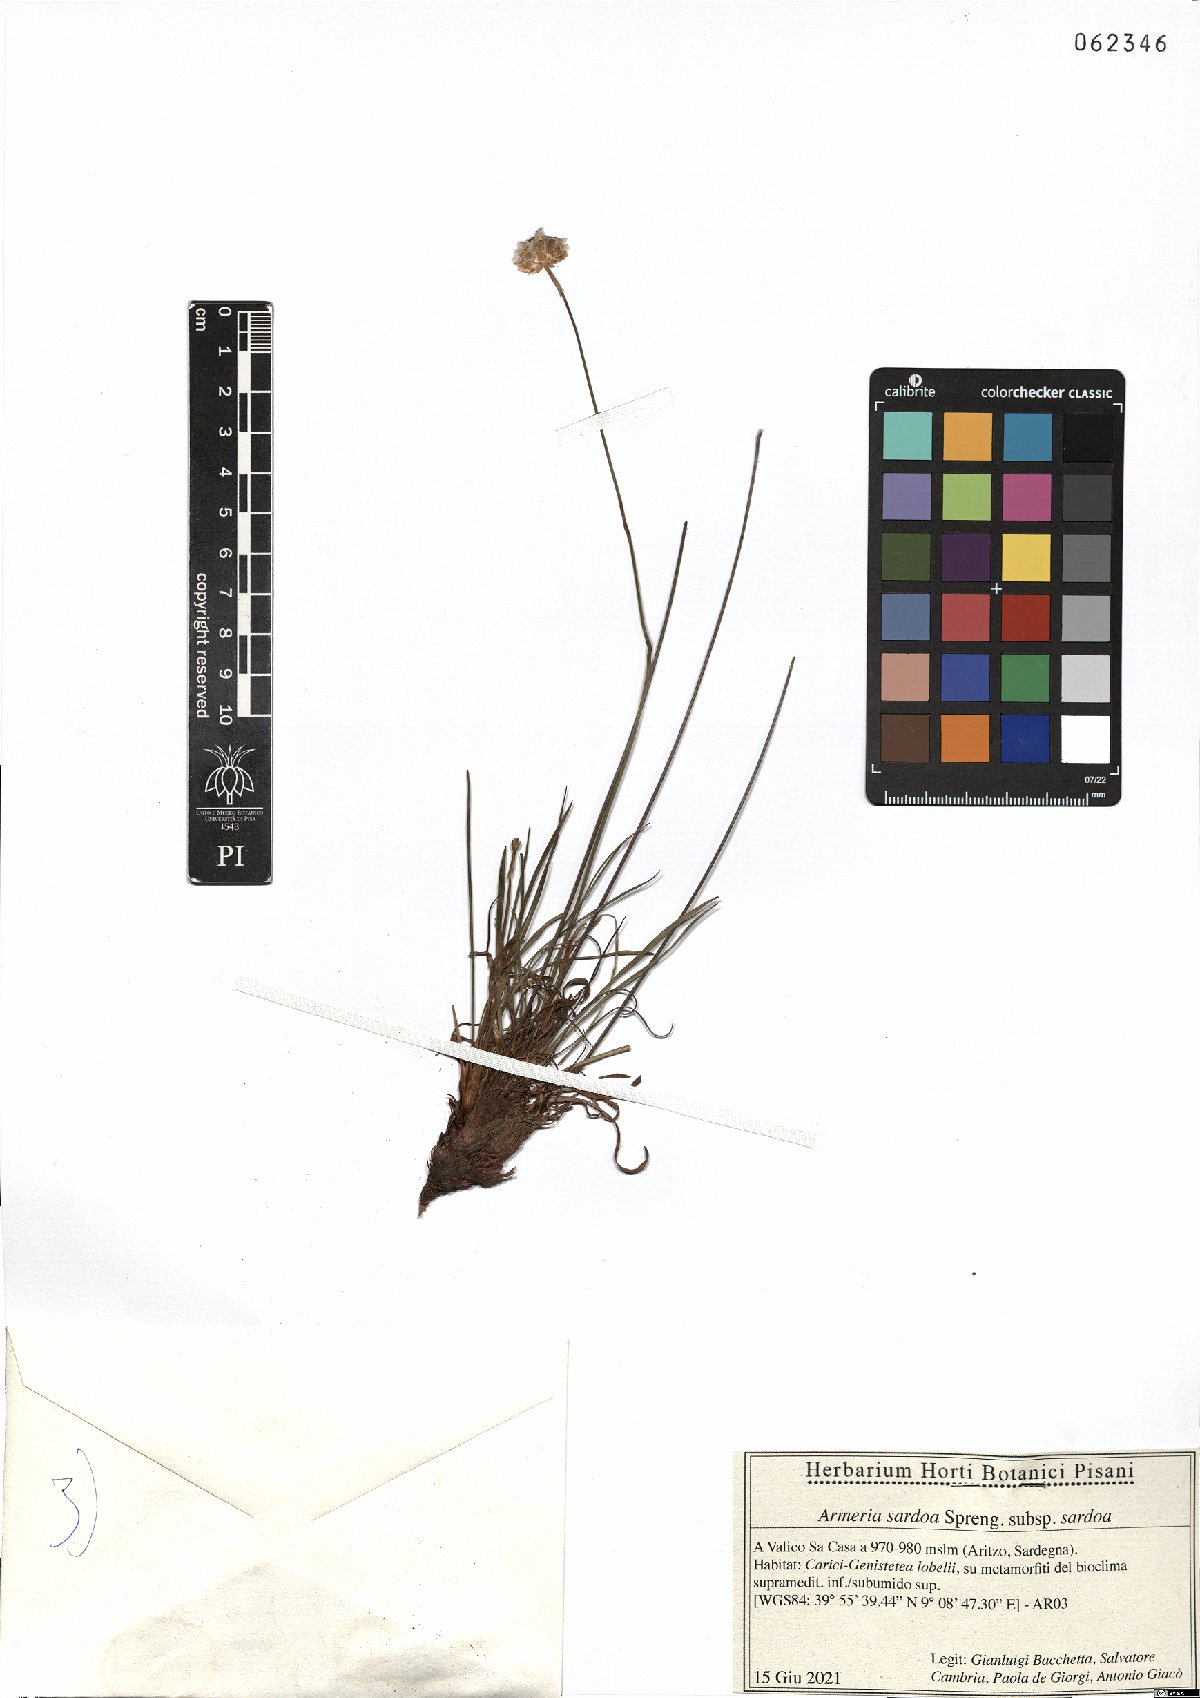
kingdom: Plantae
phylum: Tracheophyta
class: Magnoliopsida
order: Caryophyllales
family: Plumbaginaceae
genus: Armeria
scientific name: Armeria sardoa
